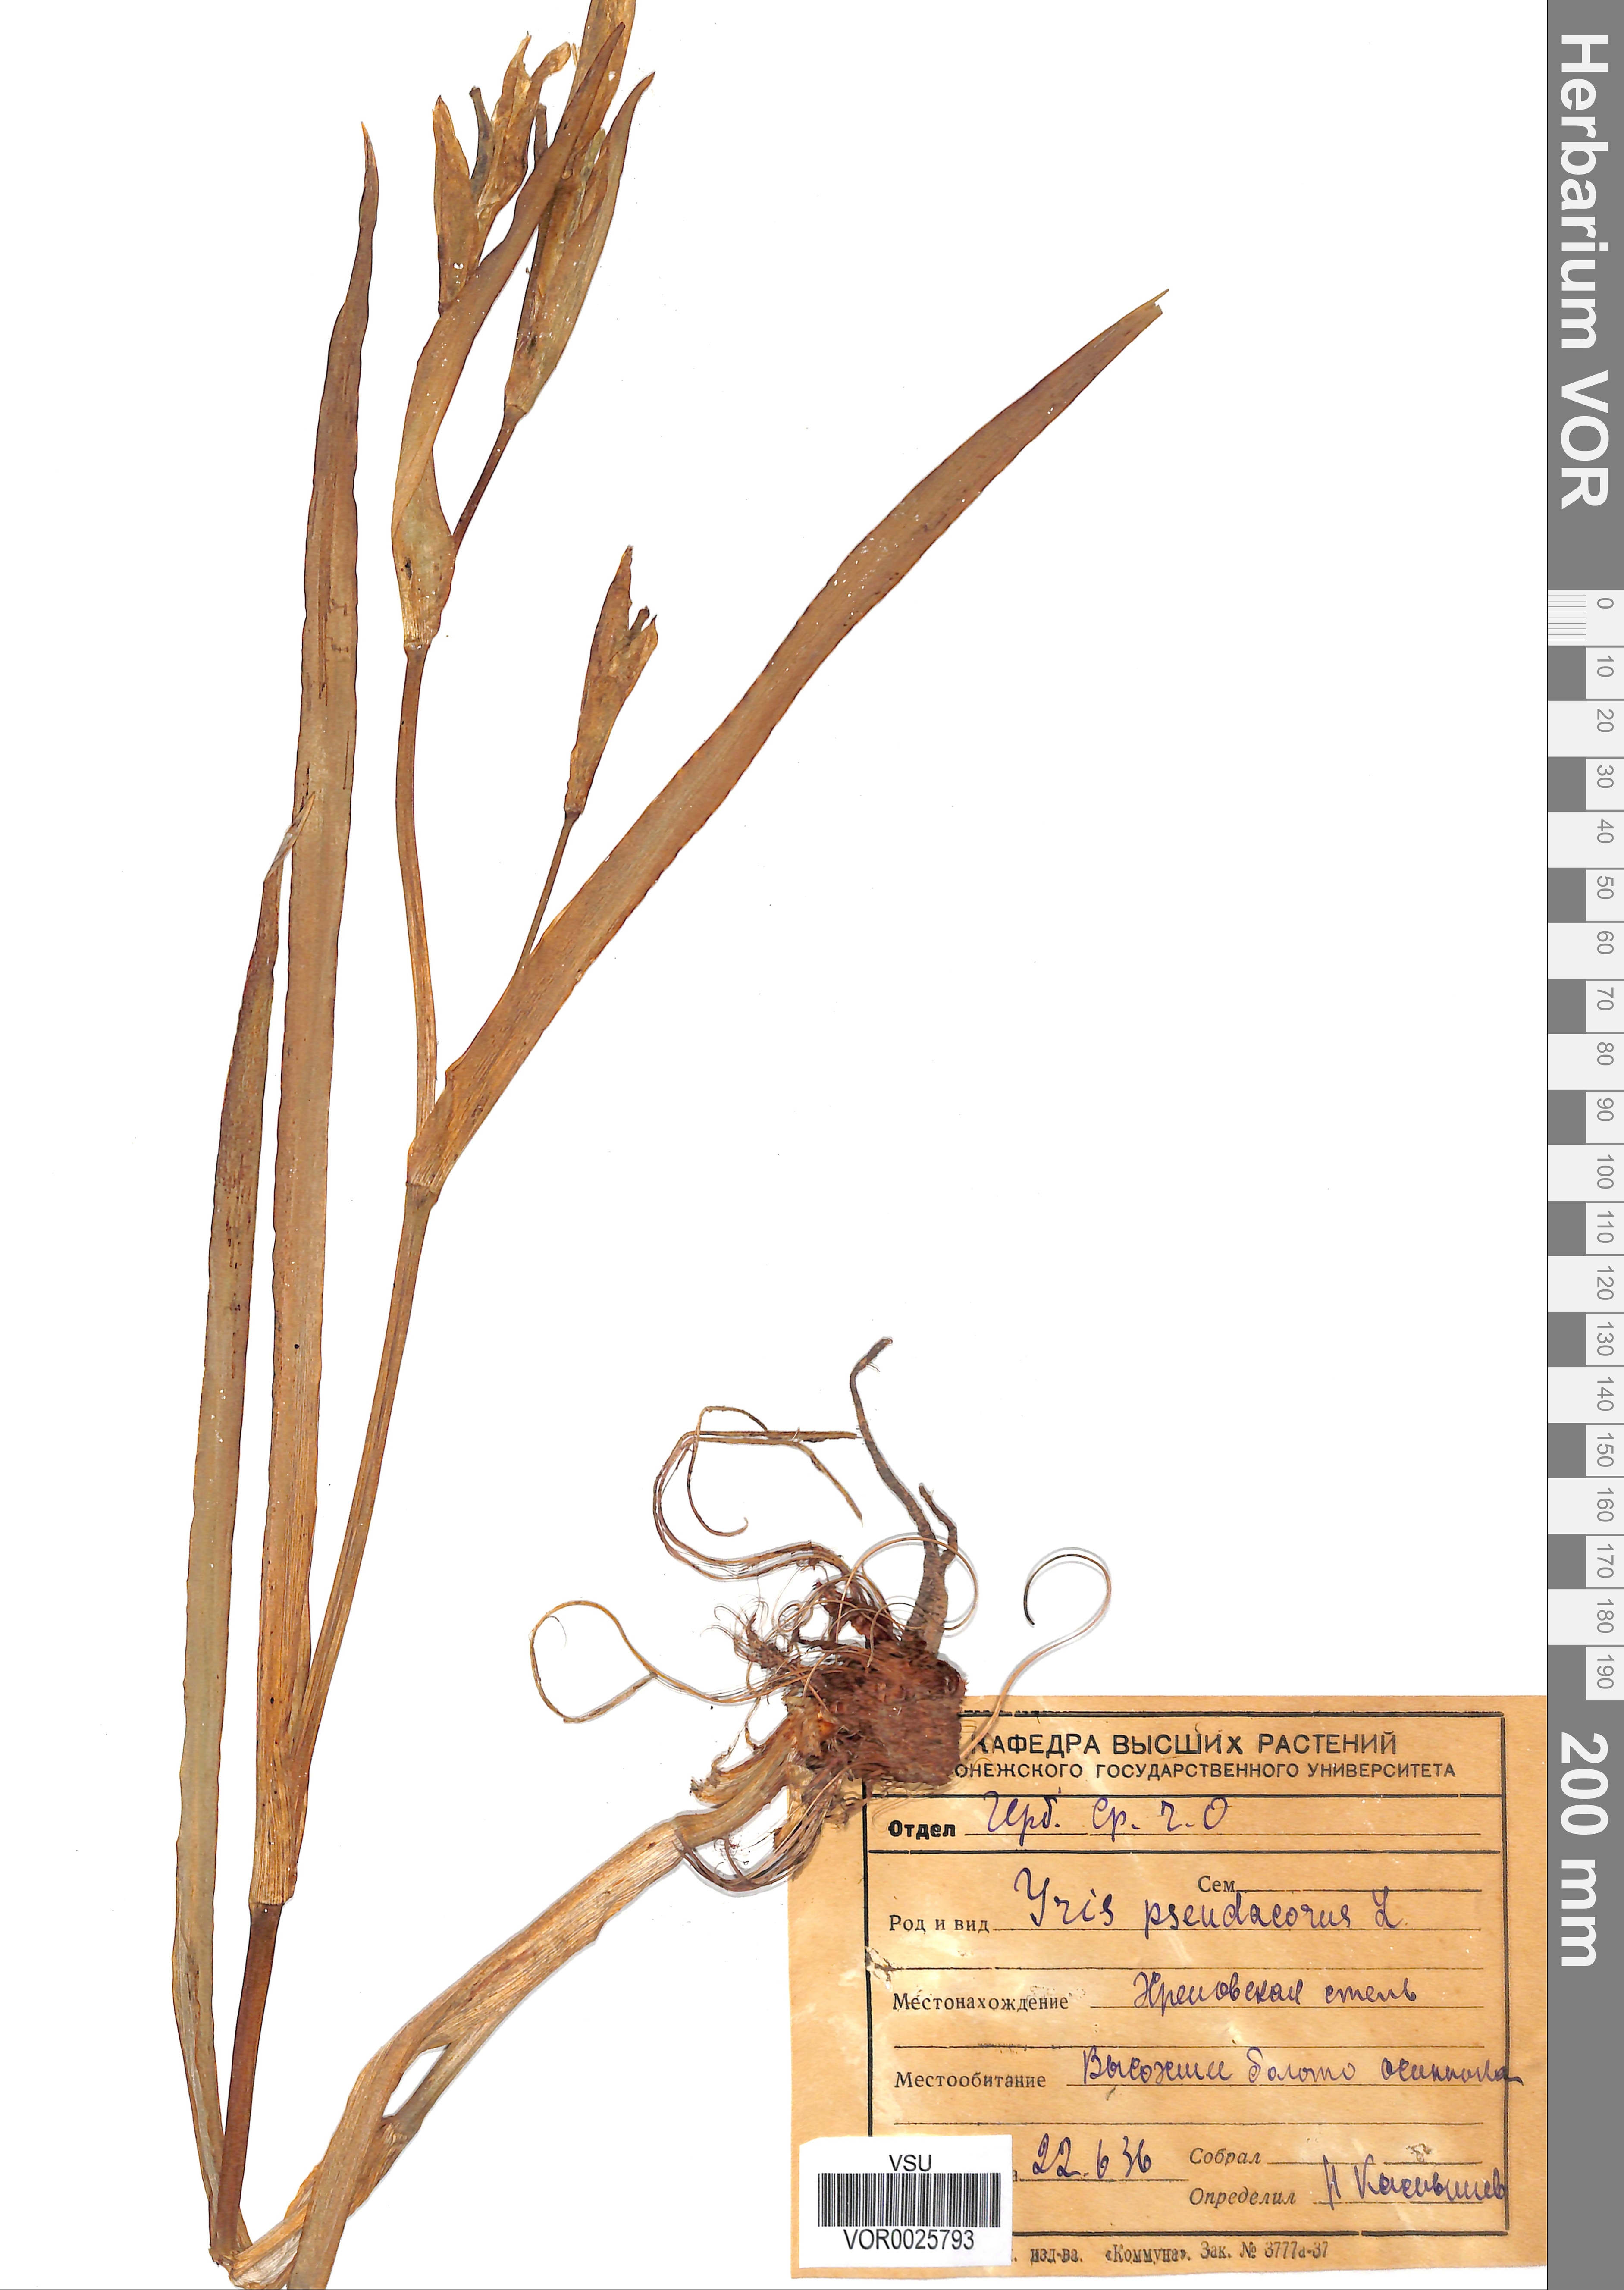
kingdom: Plantae
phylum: Tracheophyta
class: Liliopsida
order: Asparagales
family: Iridaceae
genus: Iris
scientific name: Iris pseudacorus
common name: Yellow flag
